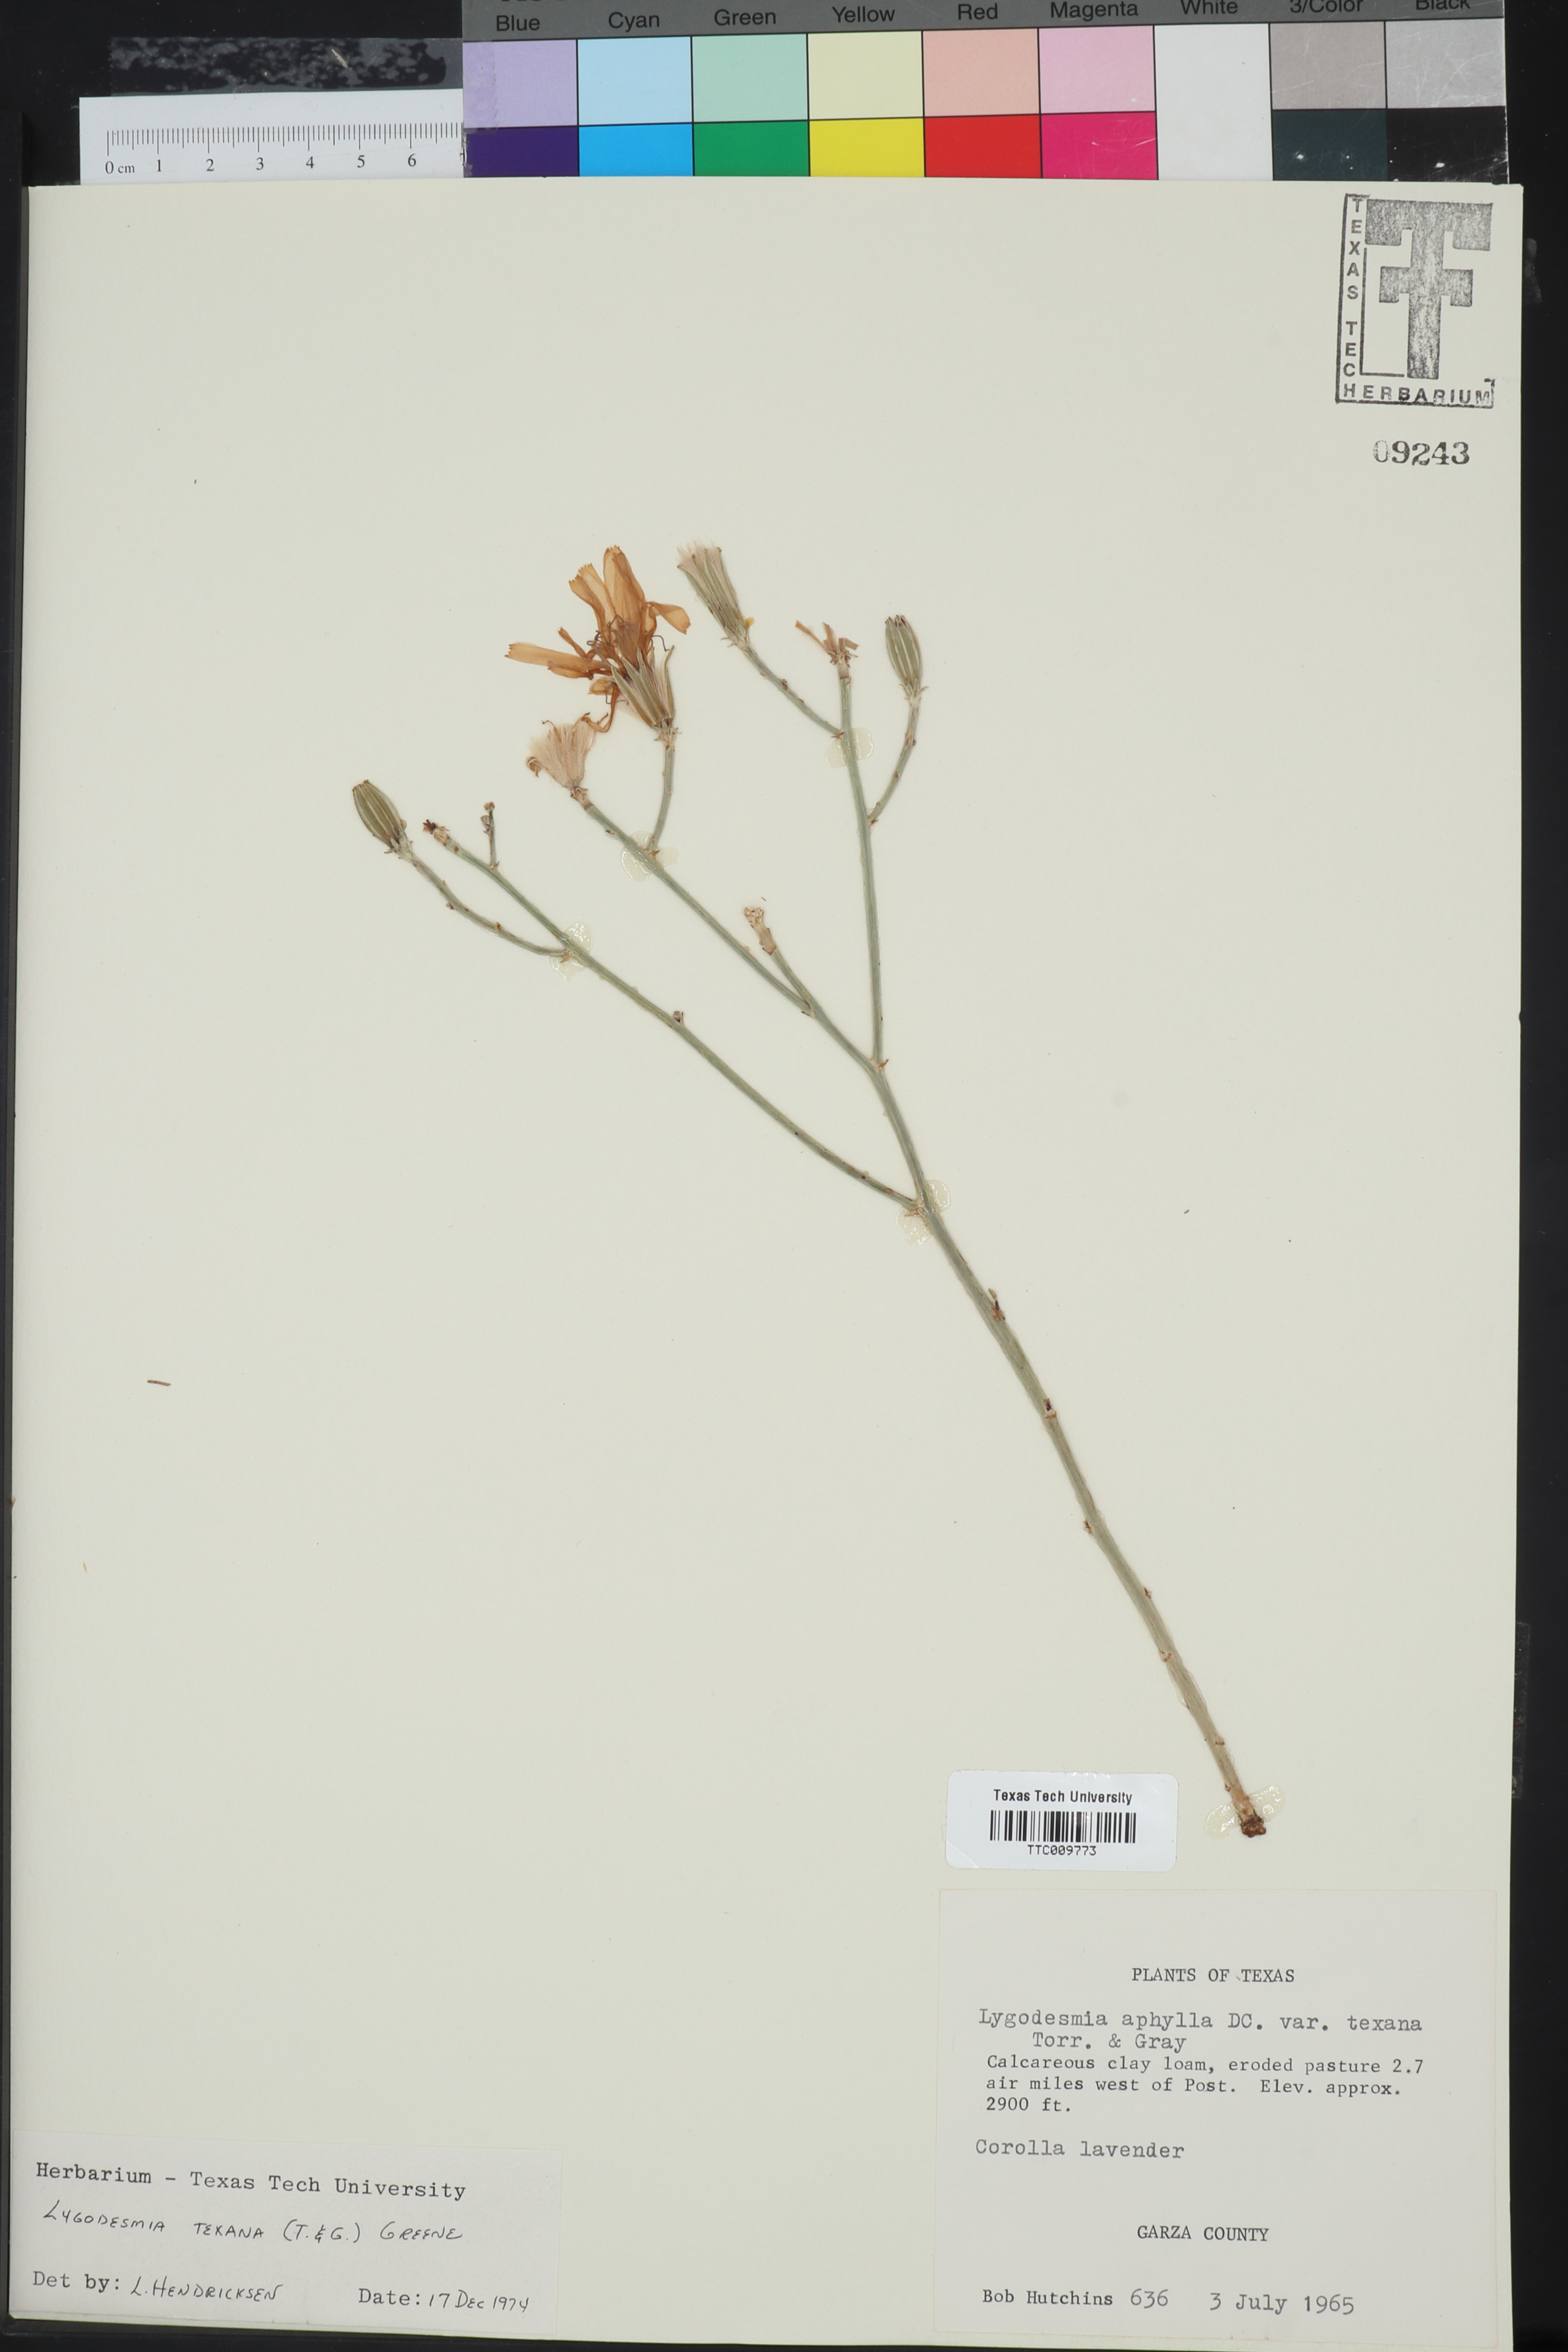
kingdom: Plantae
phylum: Tracheophyta
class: Magnoliopsida
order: Asterales
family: Asteraceae
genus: Lygodesmia
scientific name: Lygodesmia texana
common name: Texas skeleton-plant
